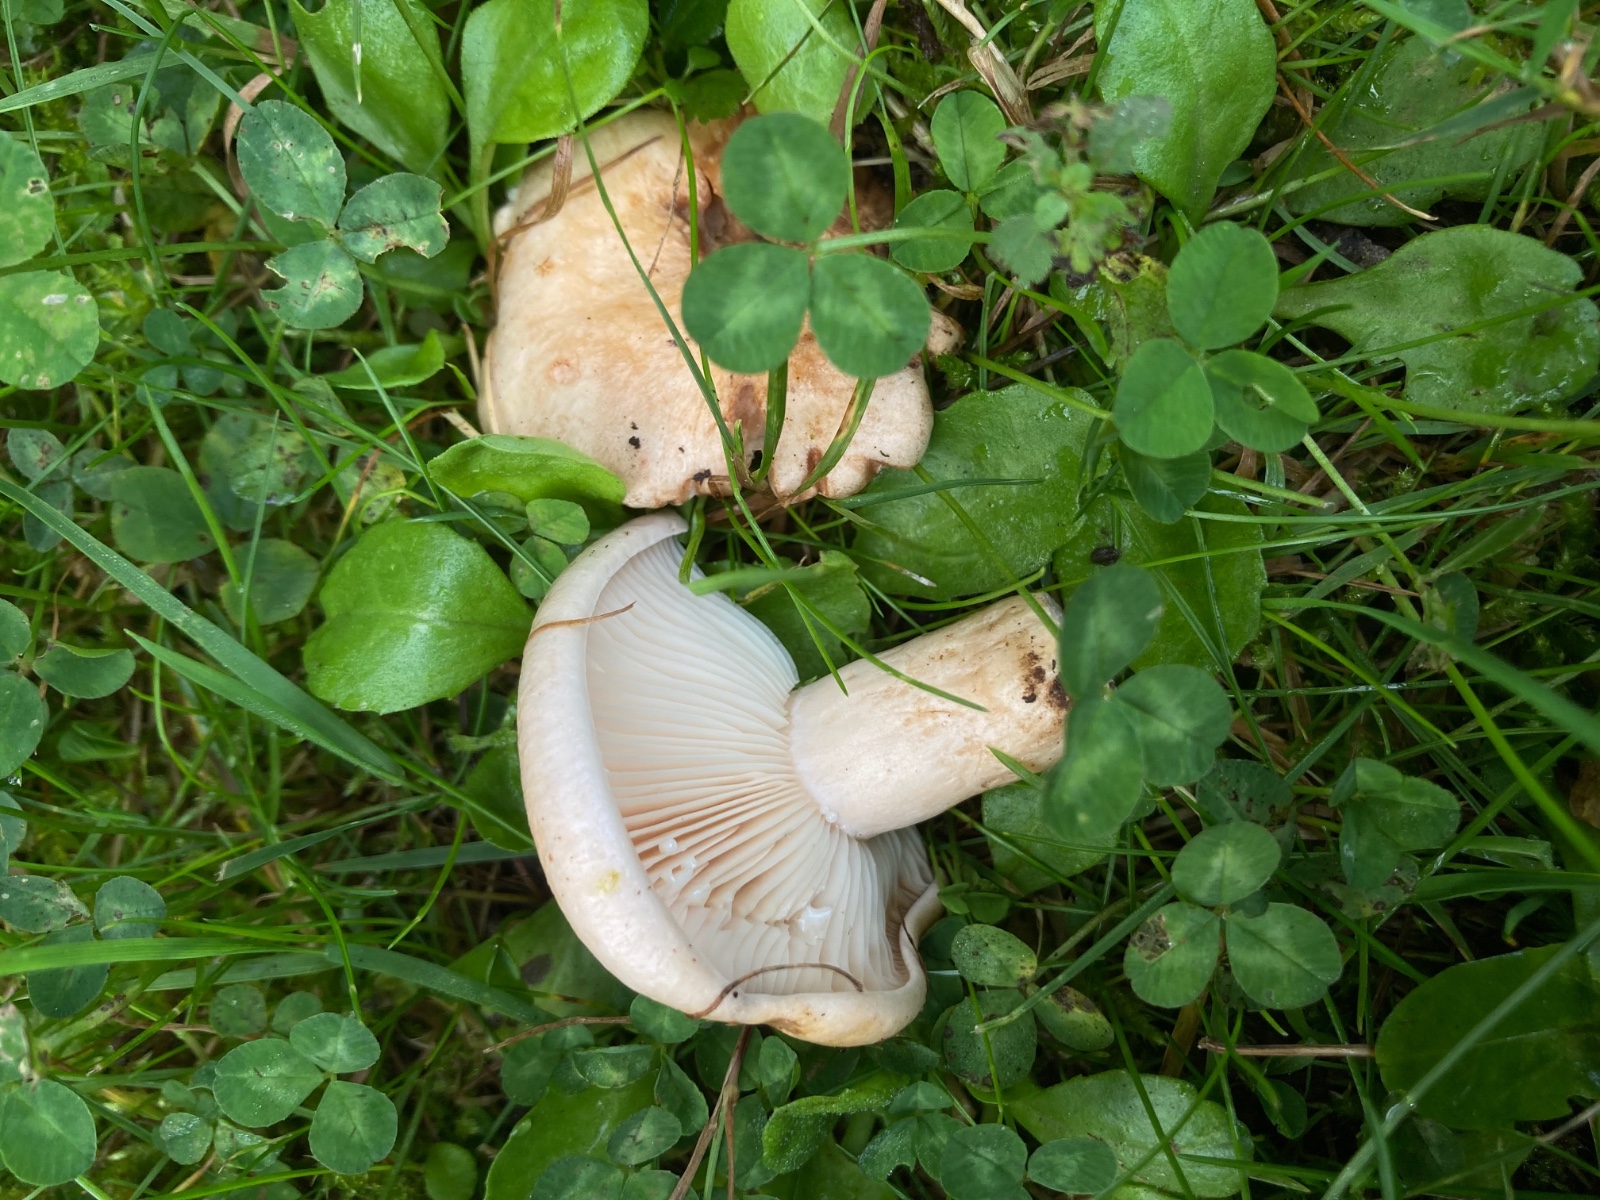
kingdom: Fungi
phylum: Basidiomycota
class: Agaricomycetes
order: Russulales
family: Russulaceae
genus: Lactarius
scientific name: Lactarius pallidus
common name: bleg mælkehat
